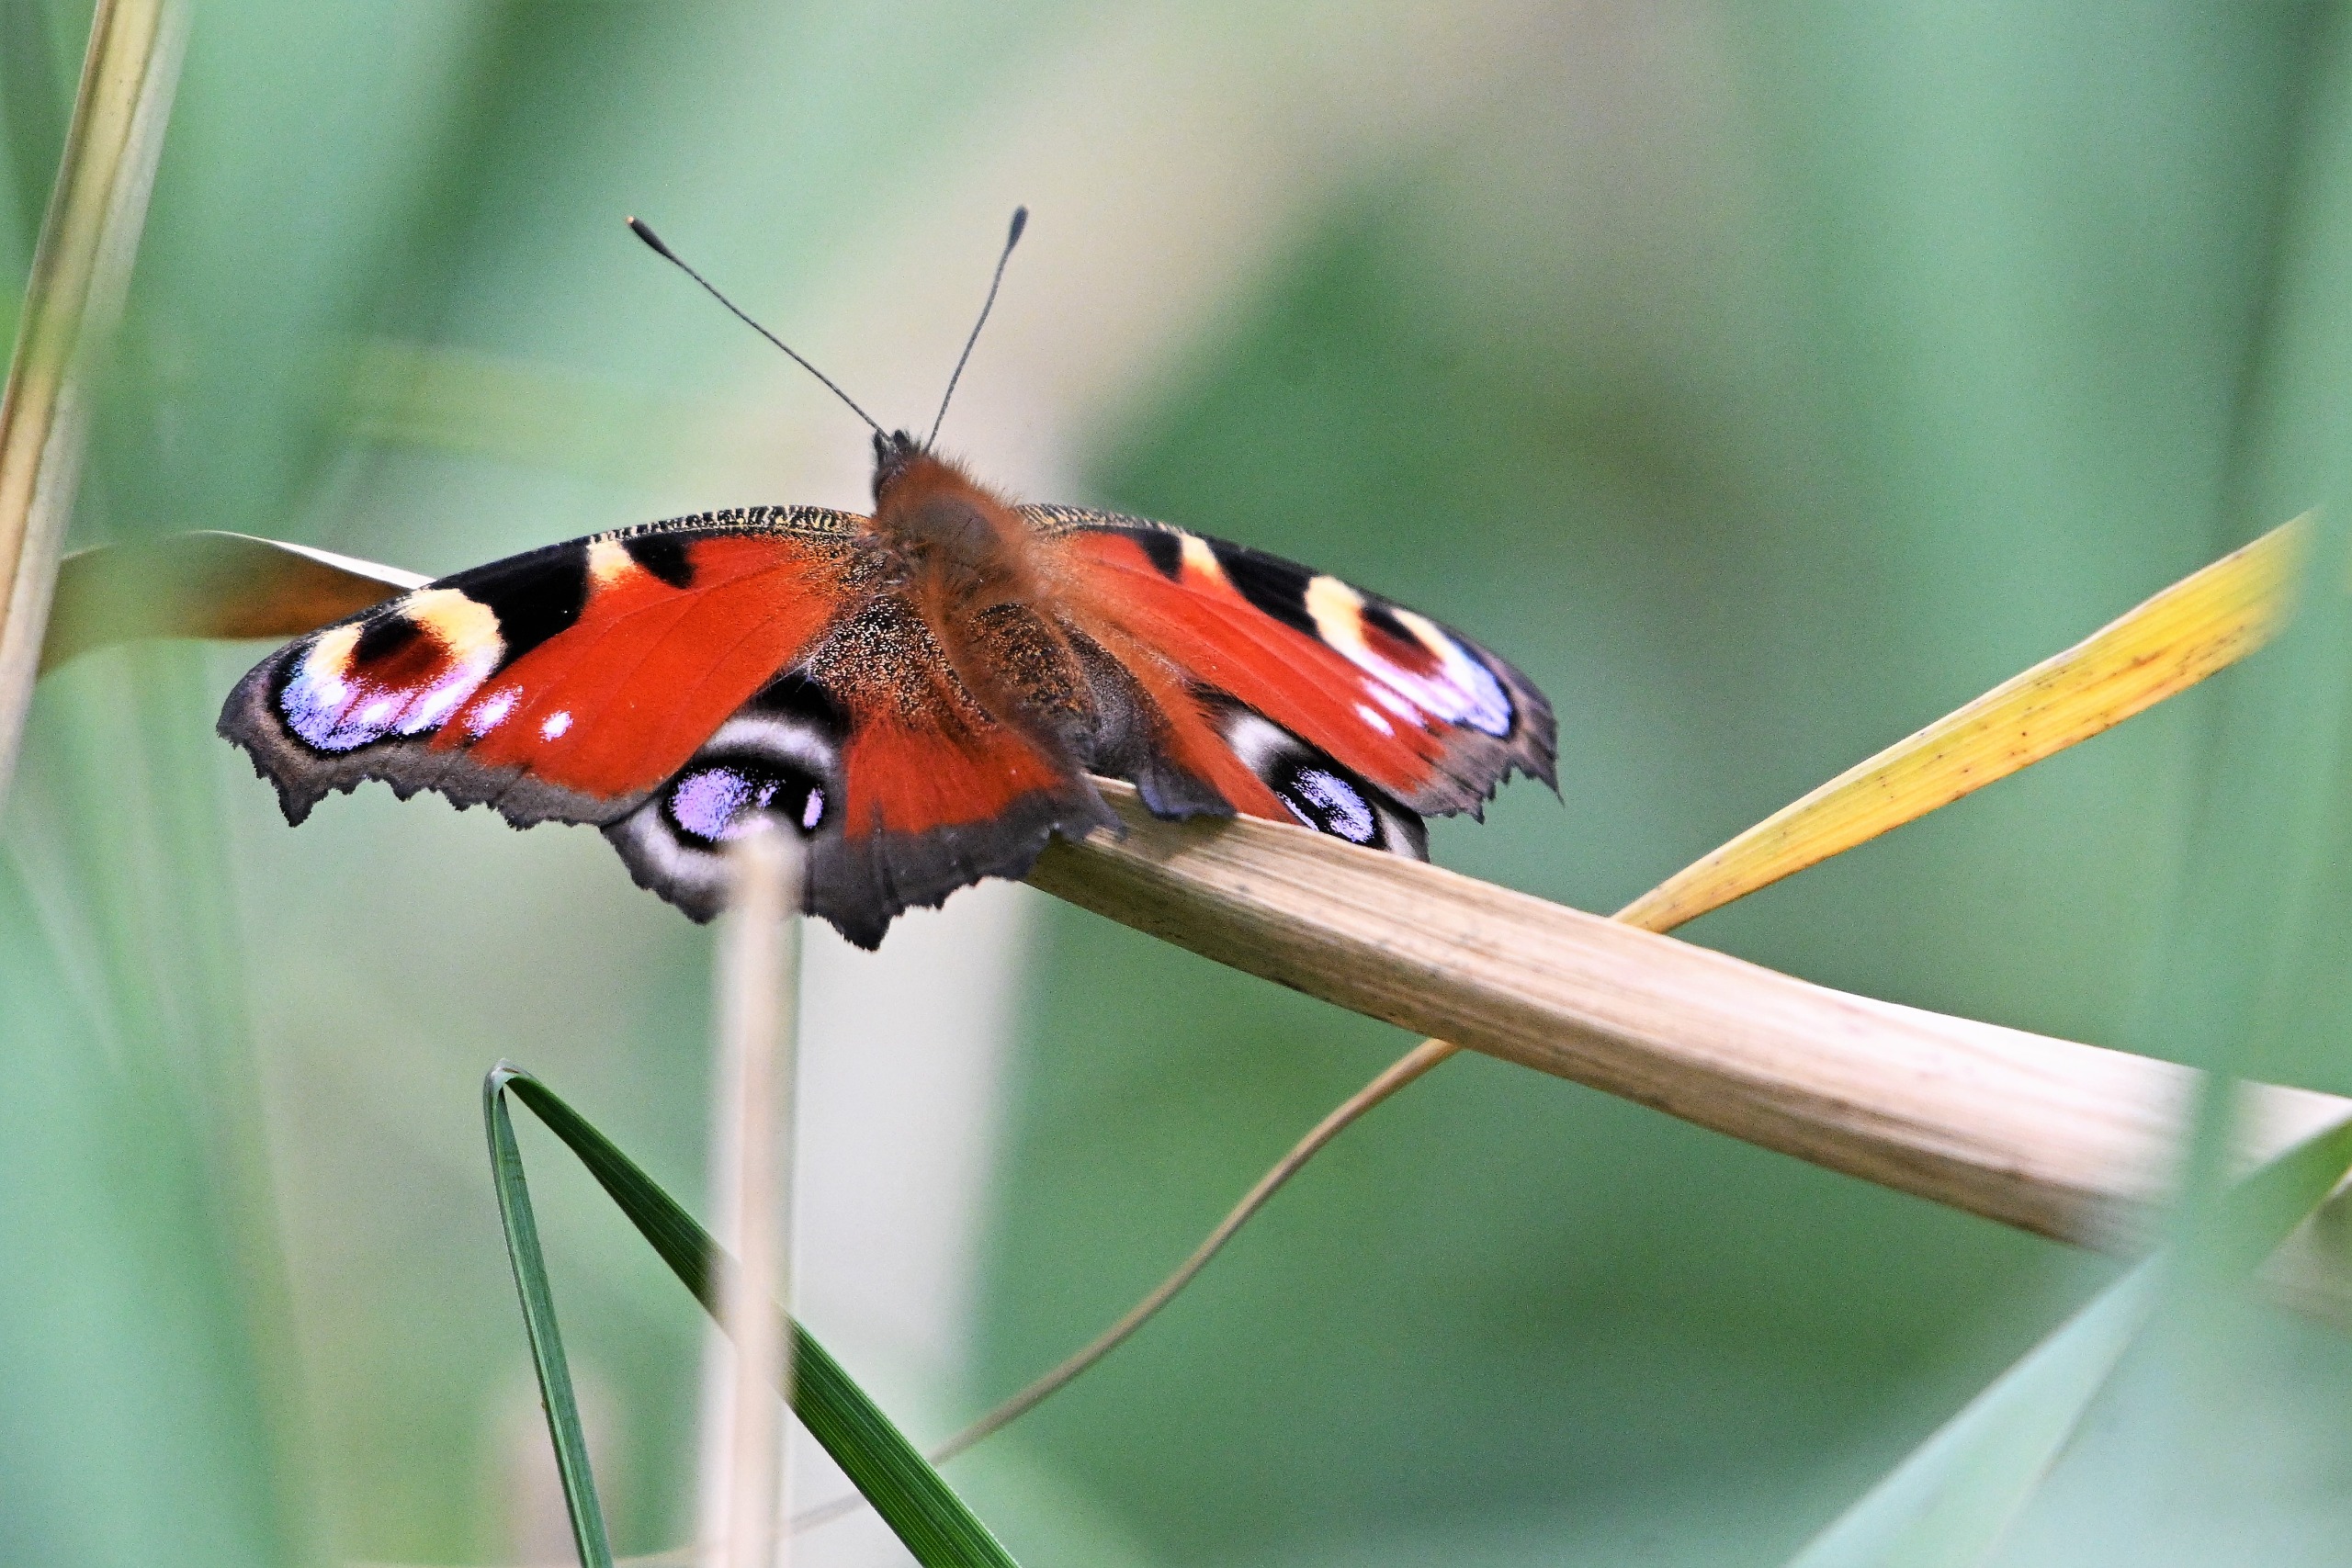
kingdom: Animalia
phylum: Arthropoda
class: Insecta
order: Lepidoptera
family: Nymphalidae
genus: Aglais
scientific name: Aglais io
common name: Dagpåfugleøje
